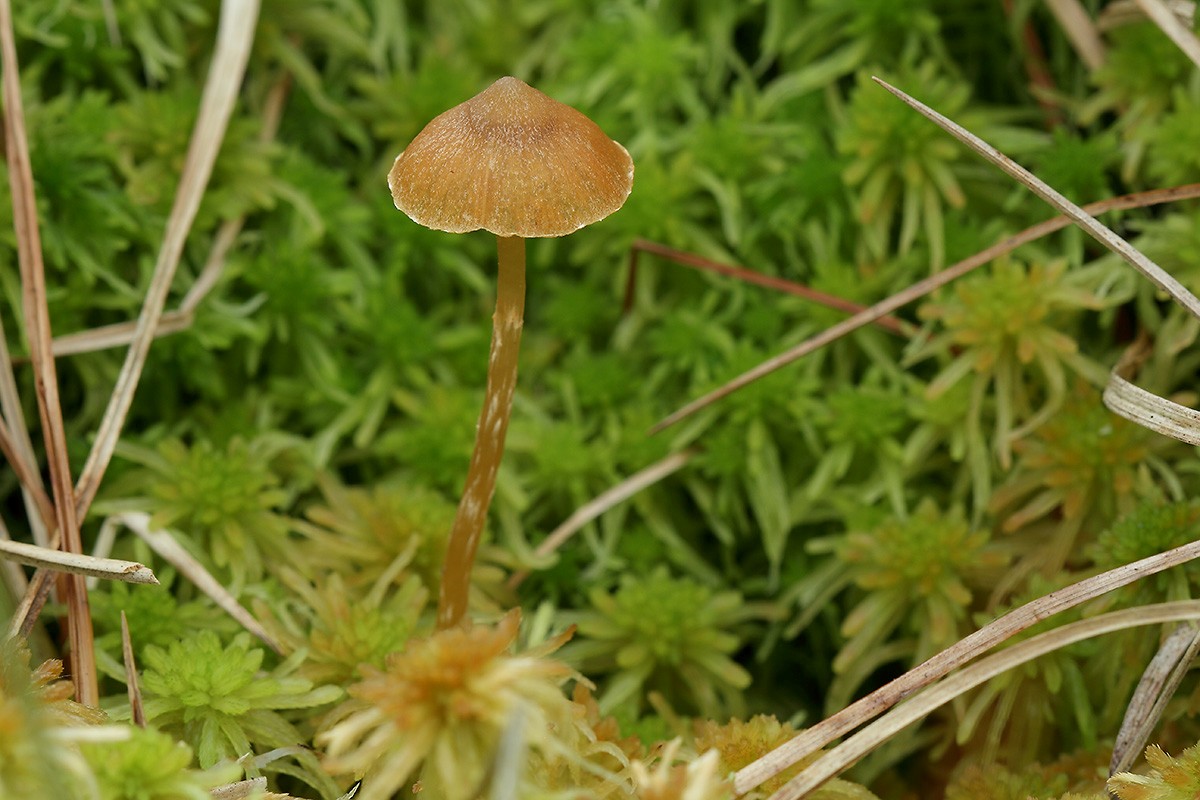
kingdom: Fungi
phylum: Basidiomycota
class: Agaricomycetes
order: Agaricales
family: Hymenogastraceae
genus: Galerina
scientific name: Galerina paludosa
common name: mose-hjelmhat
